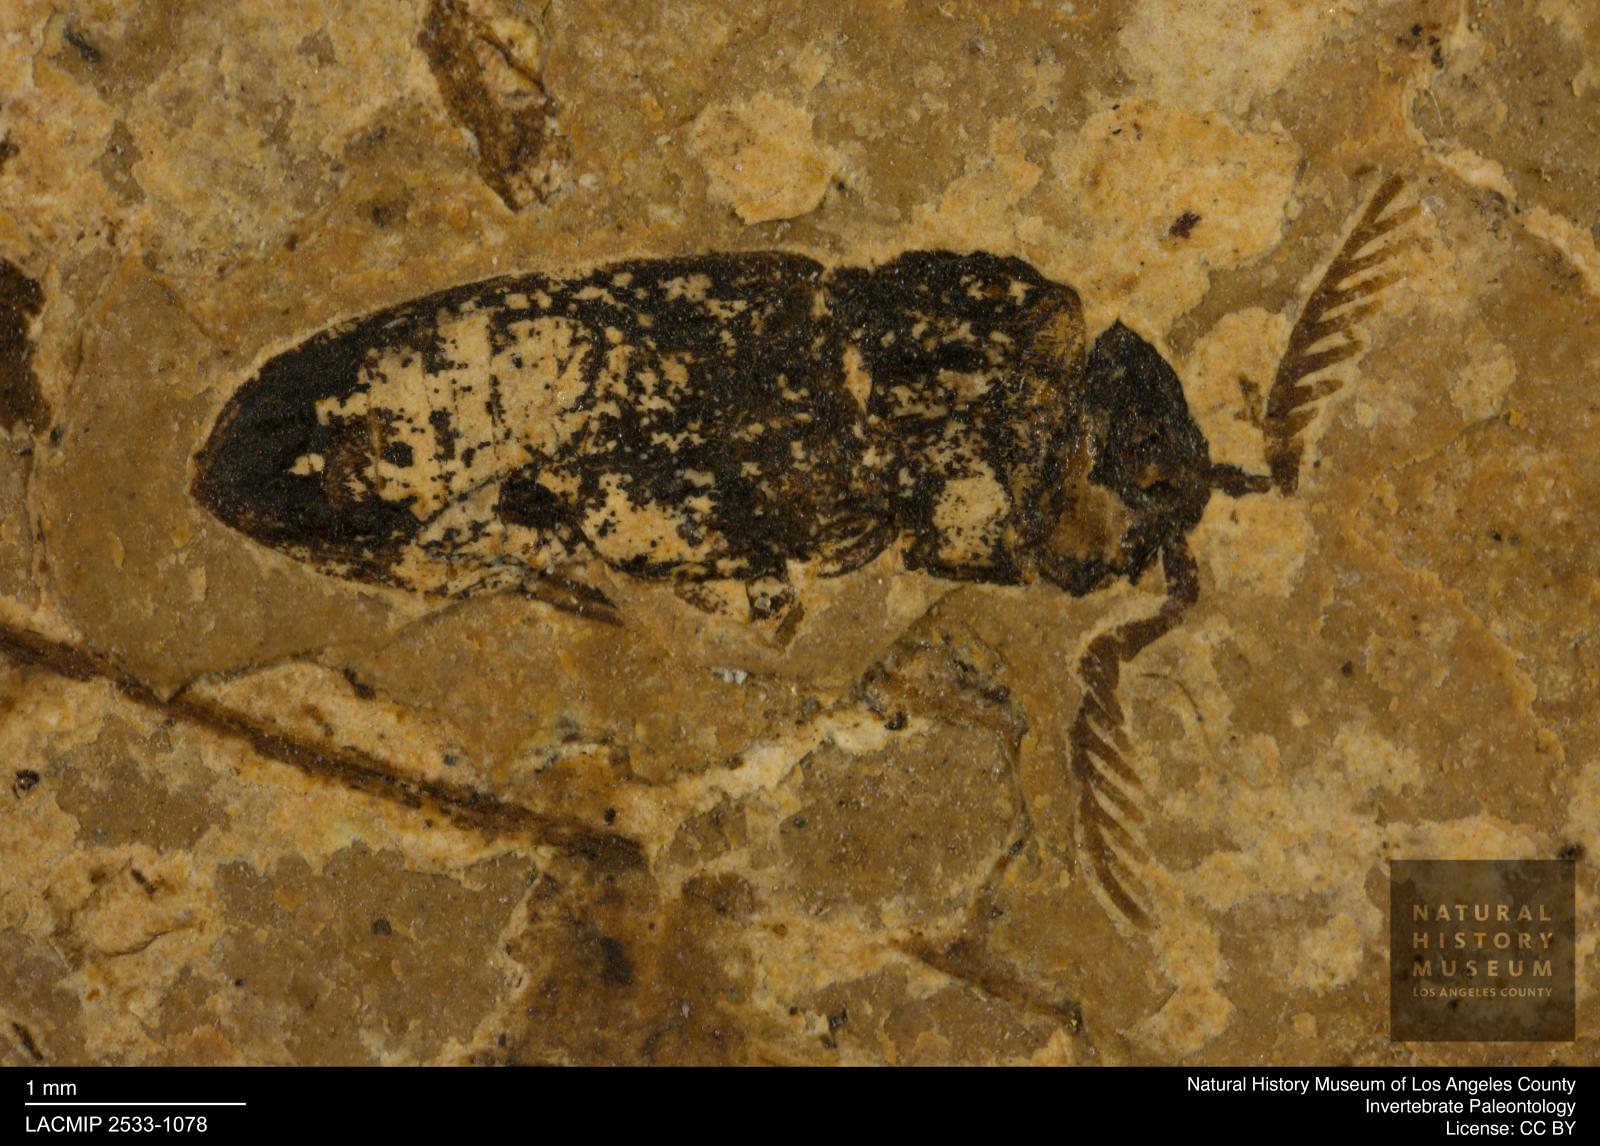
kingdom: Animalia
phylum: Arthropoda
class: Insecta
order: Coleoptera
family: Elateridae
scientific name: Elateridae
